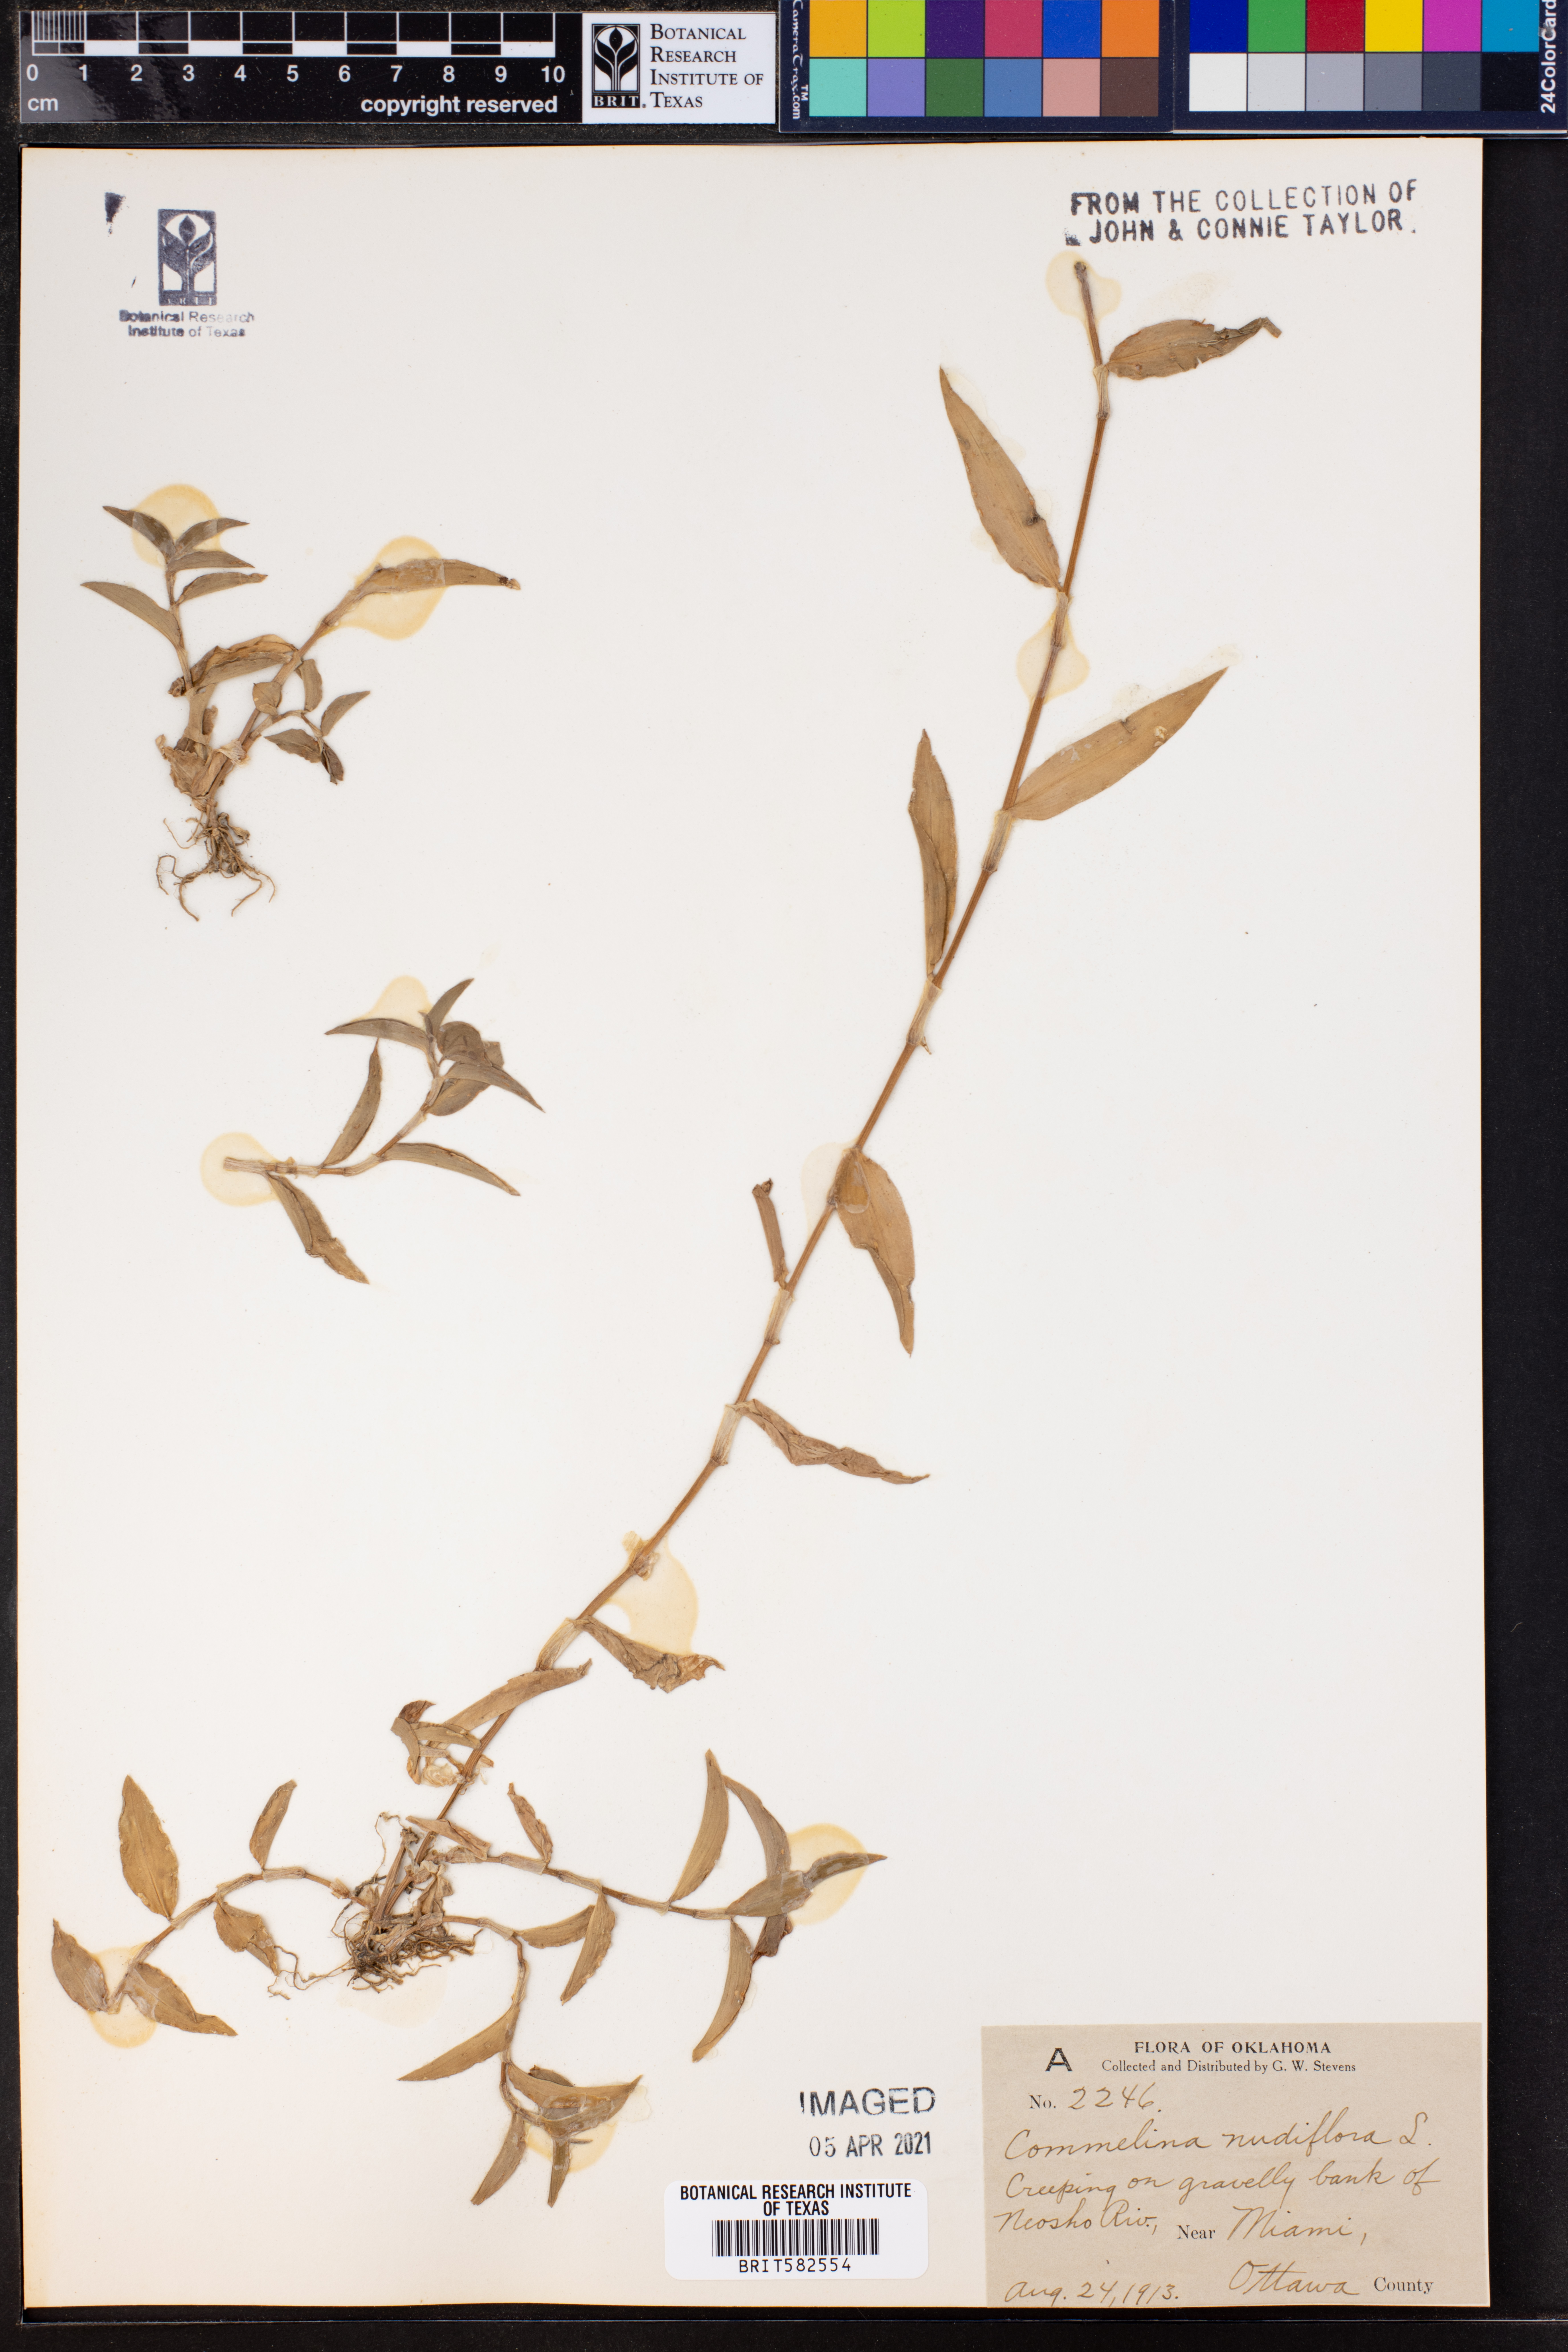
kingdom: Plantae
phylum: Tracheophyta
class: Liliopsida
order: Commelinales
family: Commelinaceae
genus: Murdannia
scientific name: Murdannia nudiflora
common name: Nakedstem dewflower
